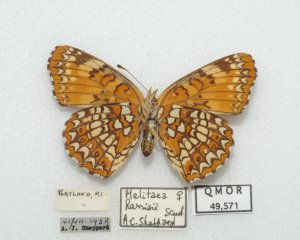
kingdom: Animalia
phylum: Arthropoda
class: Insecta
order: Lepidoptera
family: Nymphalidae
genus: Chlosyne
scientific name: Chlosyne harrisii
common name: Harris's Checkerspot
